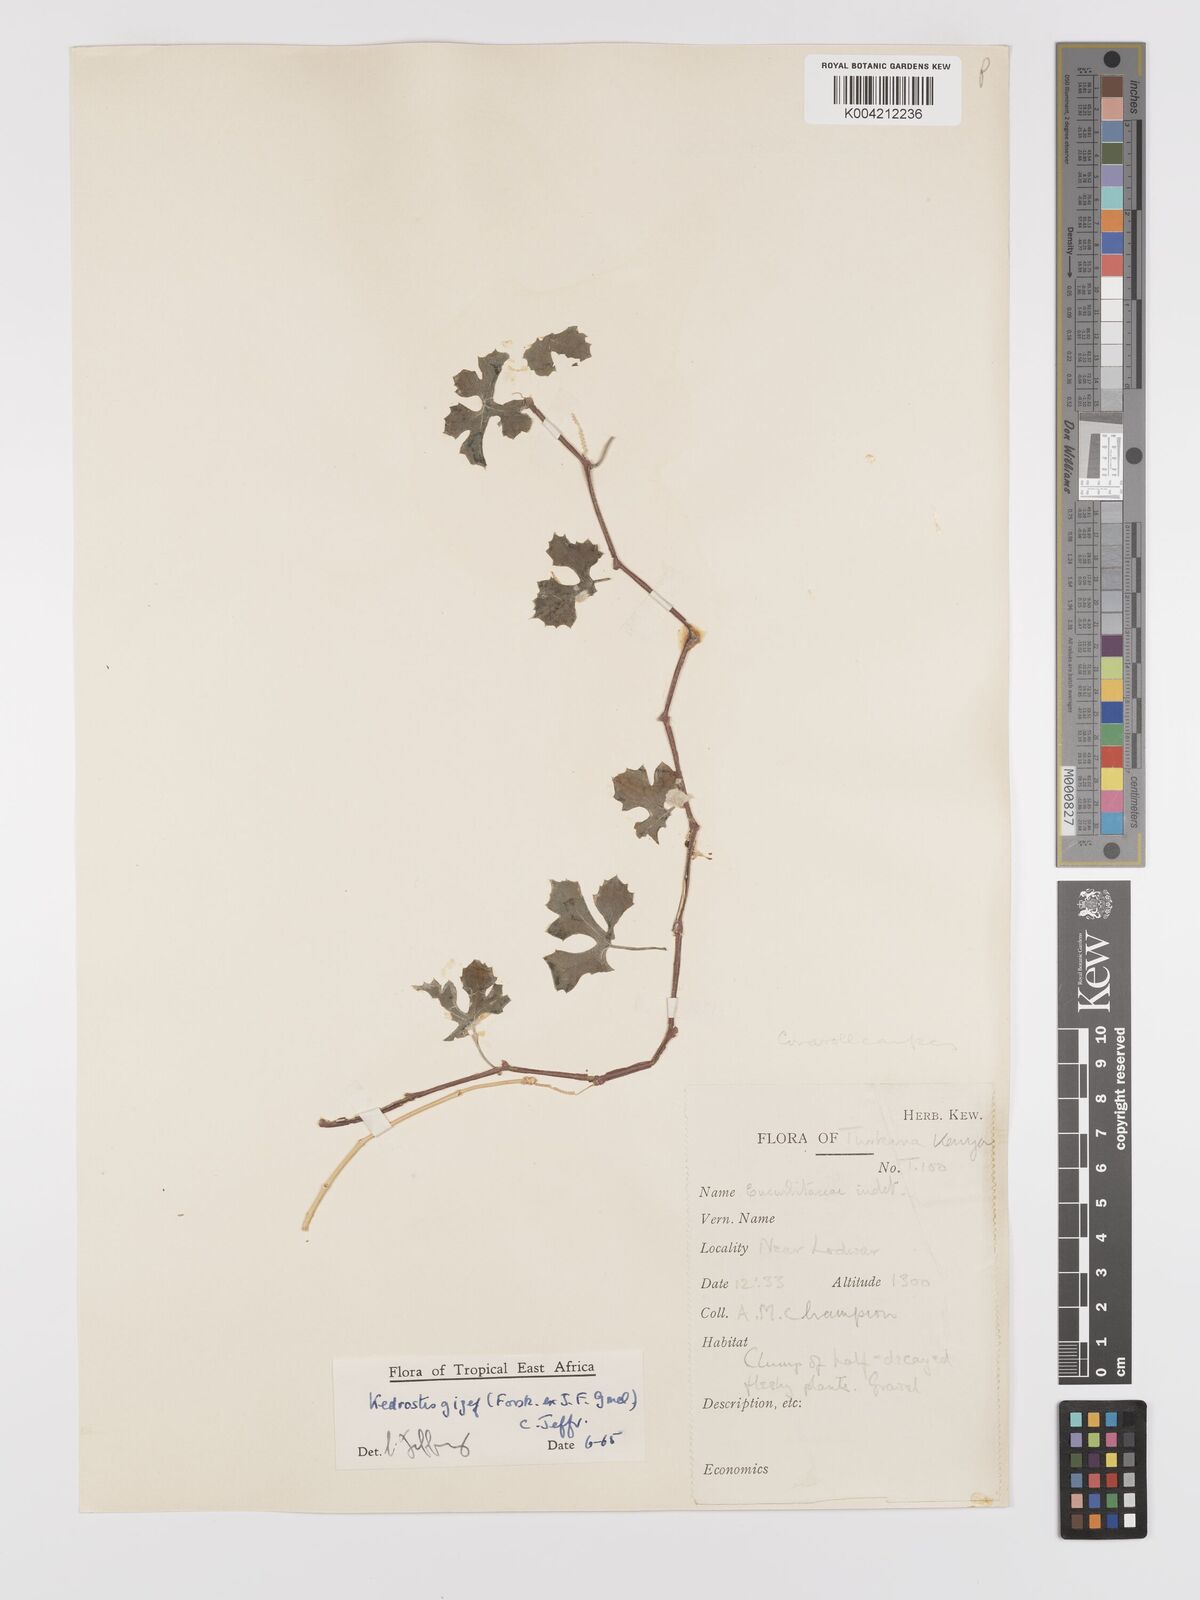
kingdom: Plantae
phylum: Tracheophyta
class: Magnoliopsida
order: Cucurbitales
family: Cucurbitaceae
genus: Kedrostis
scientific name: Kedrostis gijef
